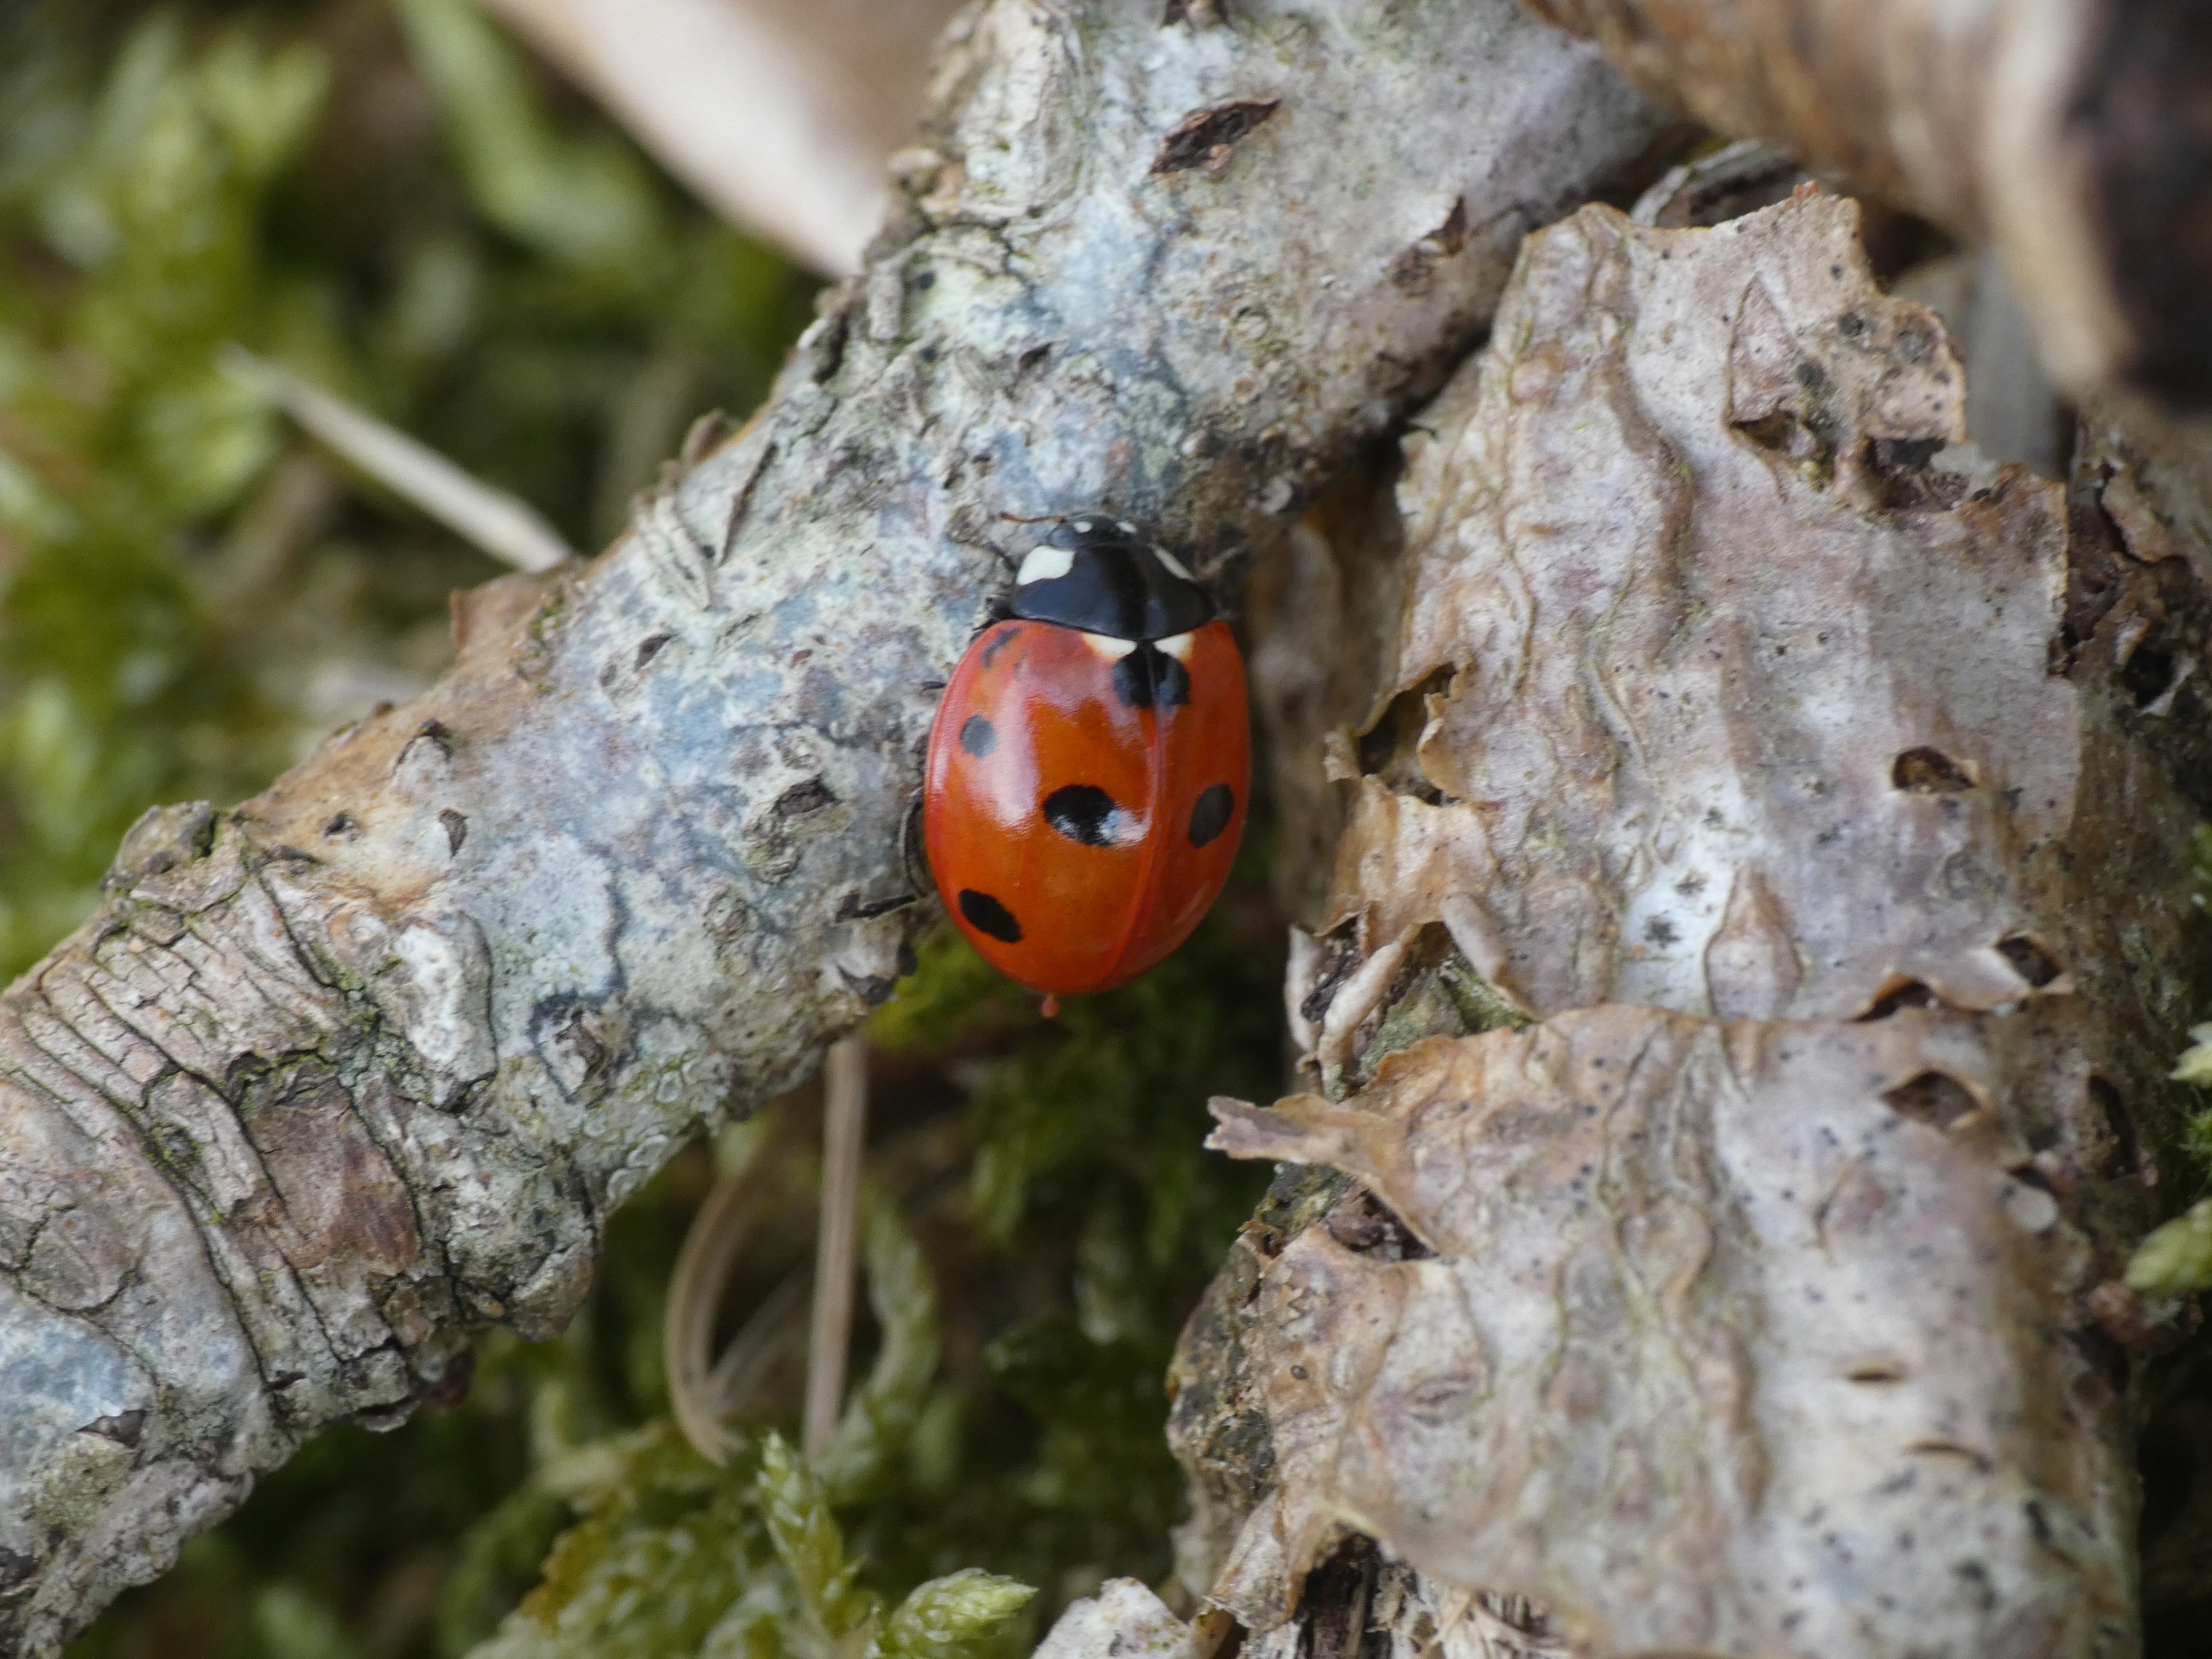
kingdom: Animalia
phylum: Arthropoda
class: Insecta
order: Coleoptera
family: Coccinellidae
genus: Coccinella
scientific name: Coccinella septempunctata
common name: Syvplettet mariehøne
